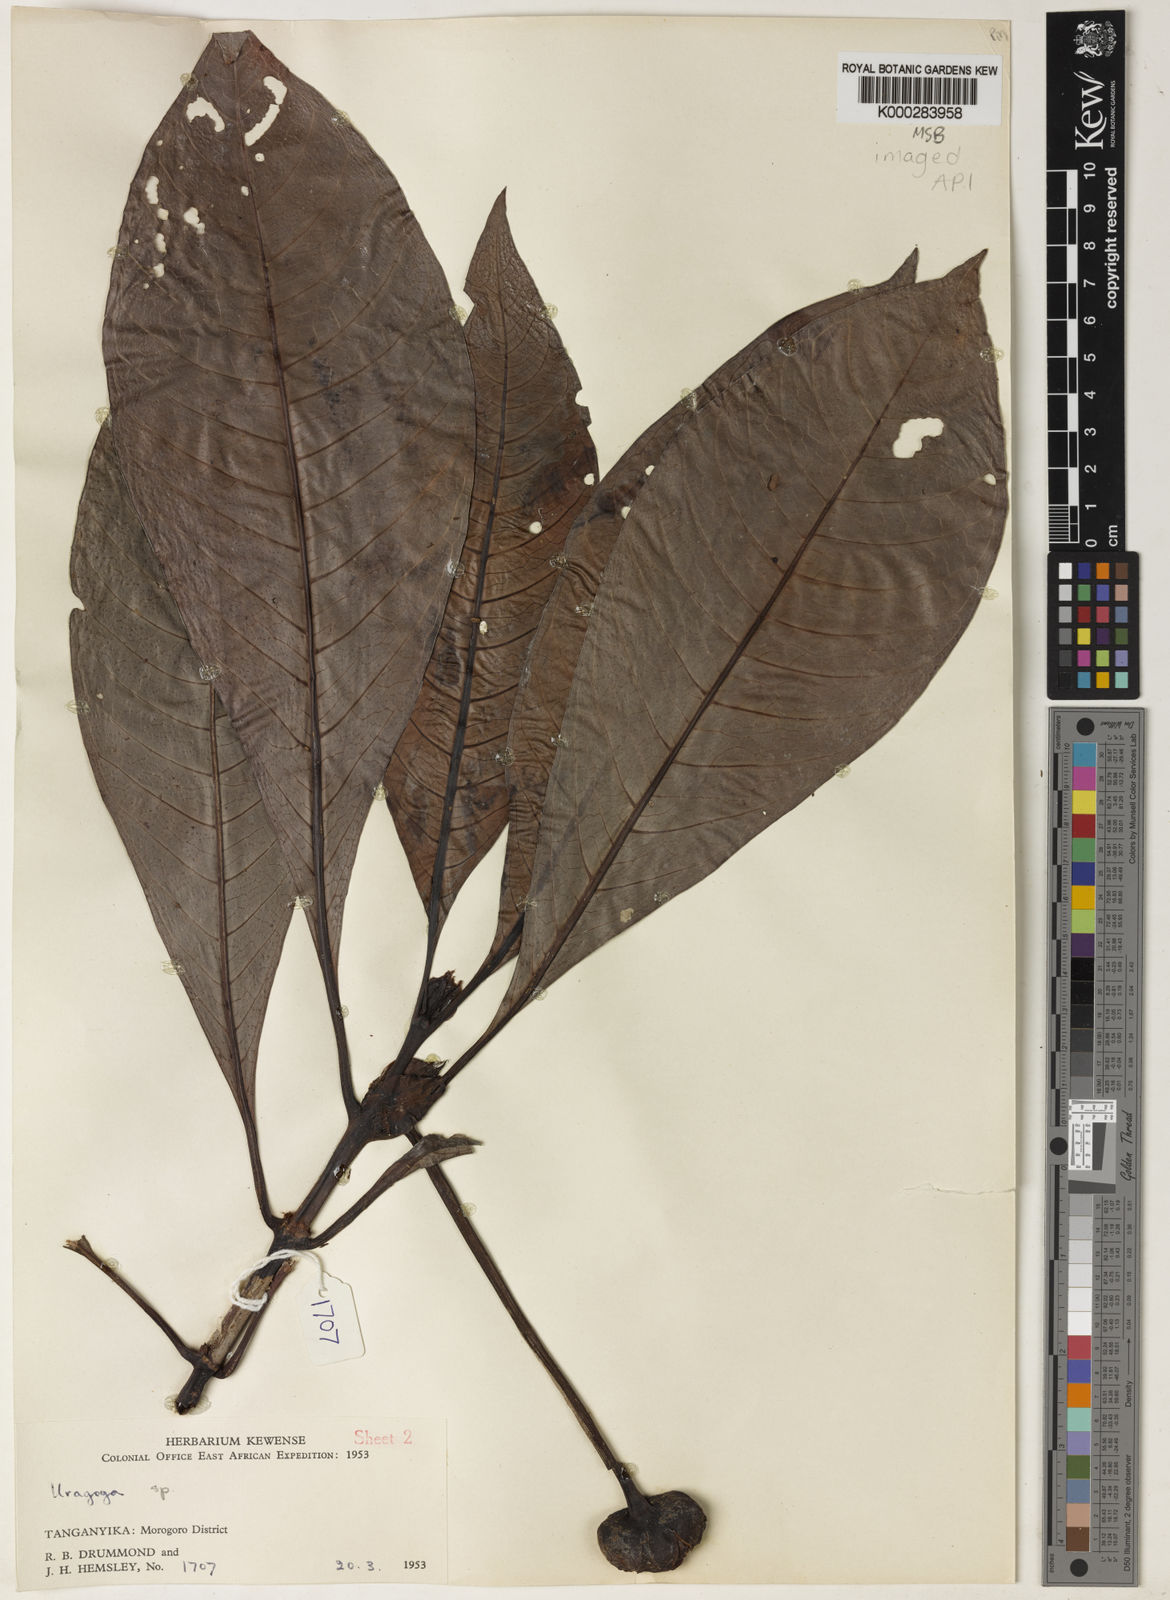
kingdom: Plantae
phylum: Tracheophyta
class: Magnoliopsida
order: Gentianales
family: Rubiaceae
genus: Psychotria
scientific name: Psychotria tanganyicensis
